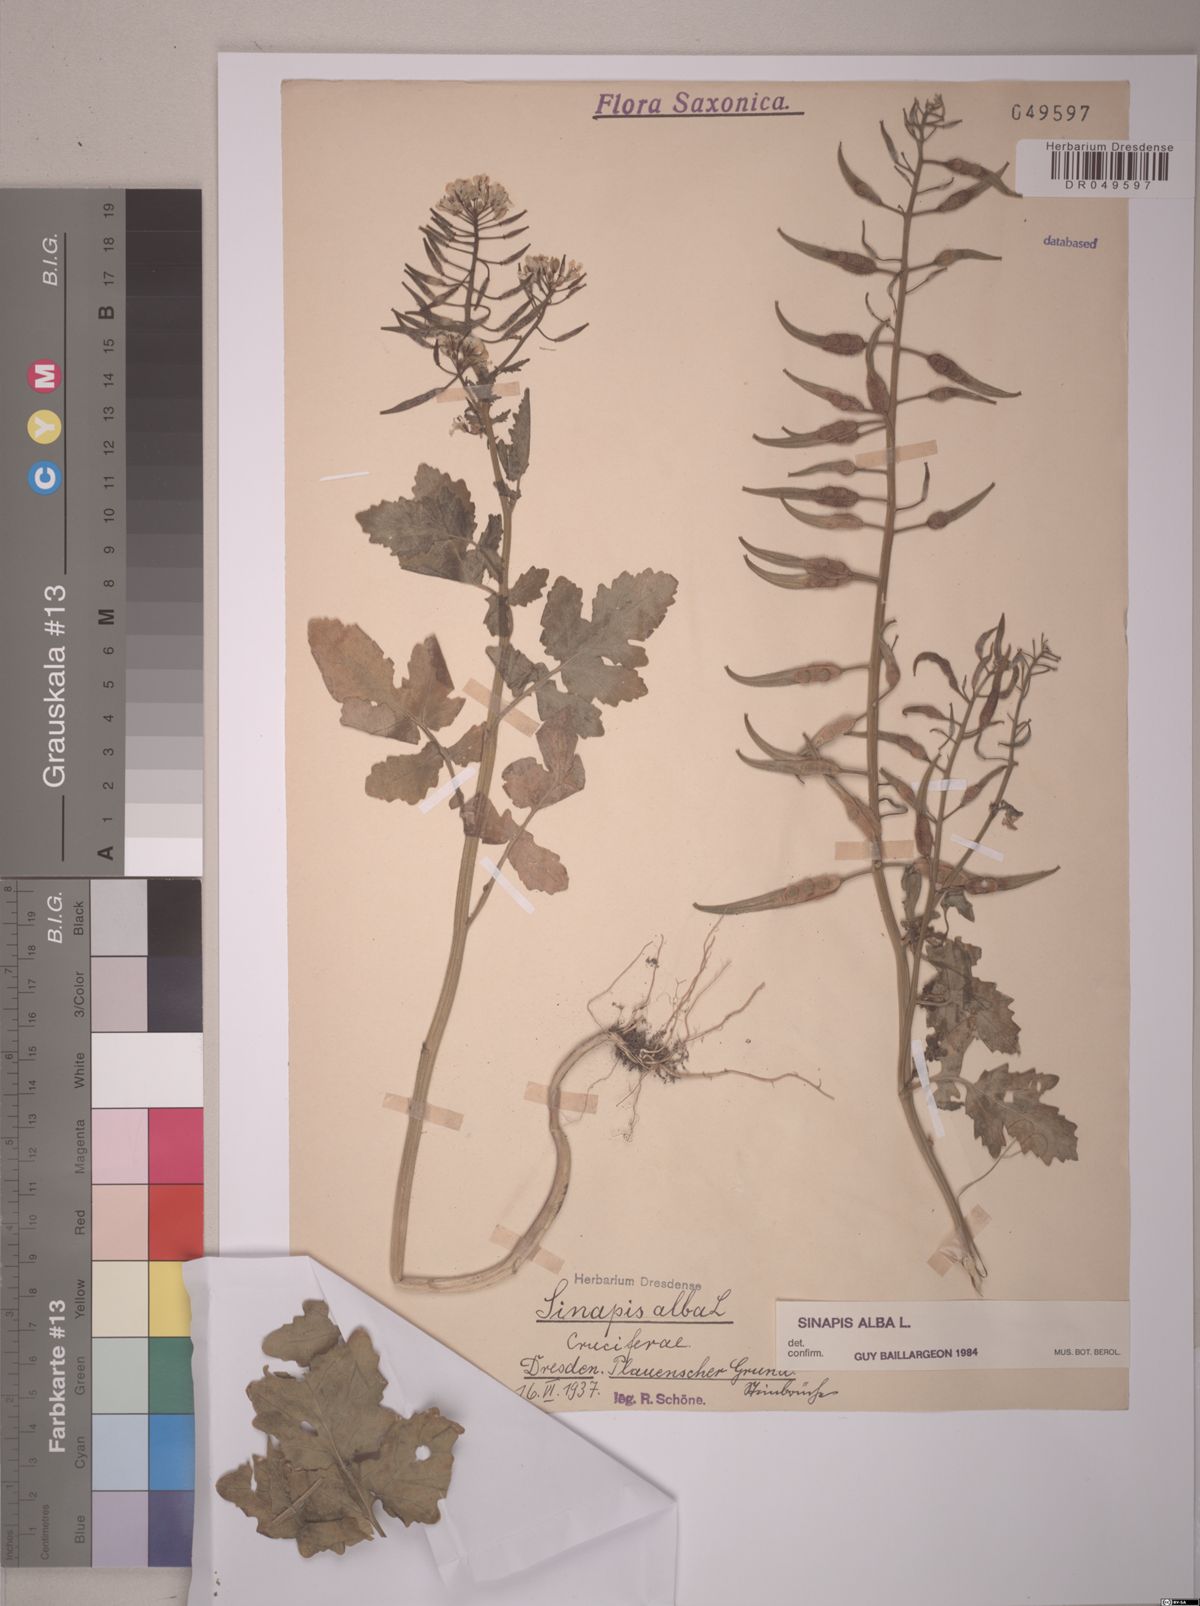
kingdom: Plantae
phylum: Tracheophyta
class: Magnoliopsida
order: Brassicales
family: Brassicaceae
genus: Sinapis
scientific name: Sinapis alba
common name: White mustard
